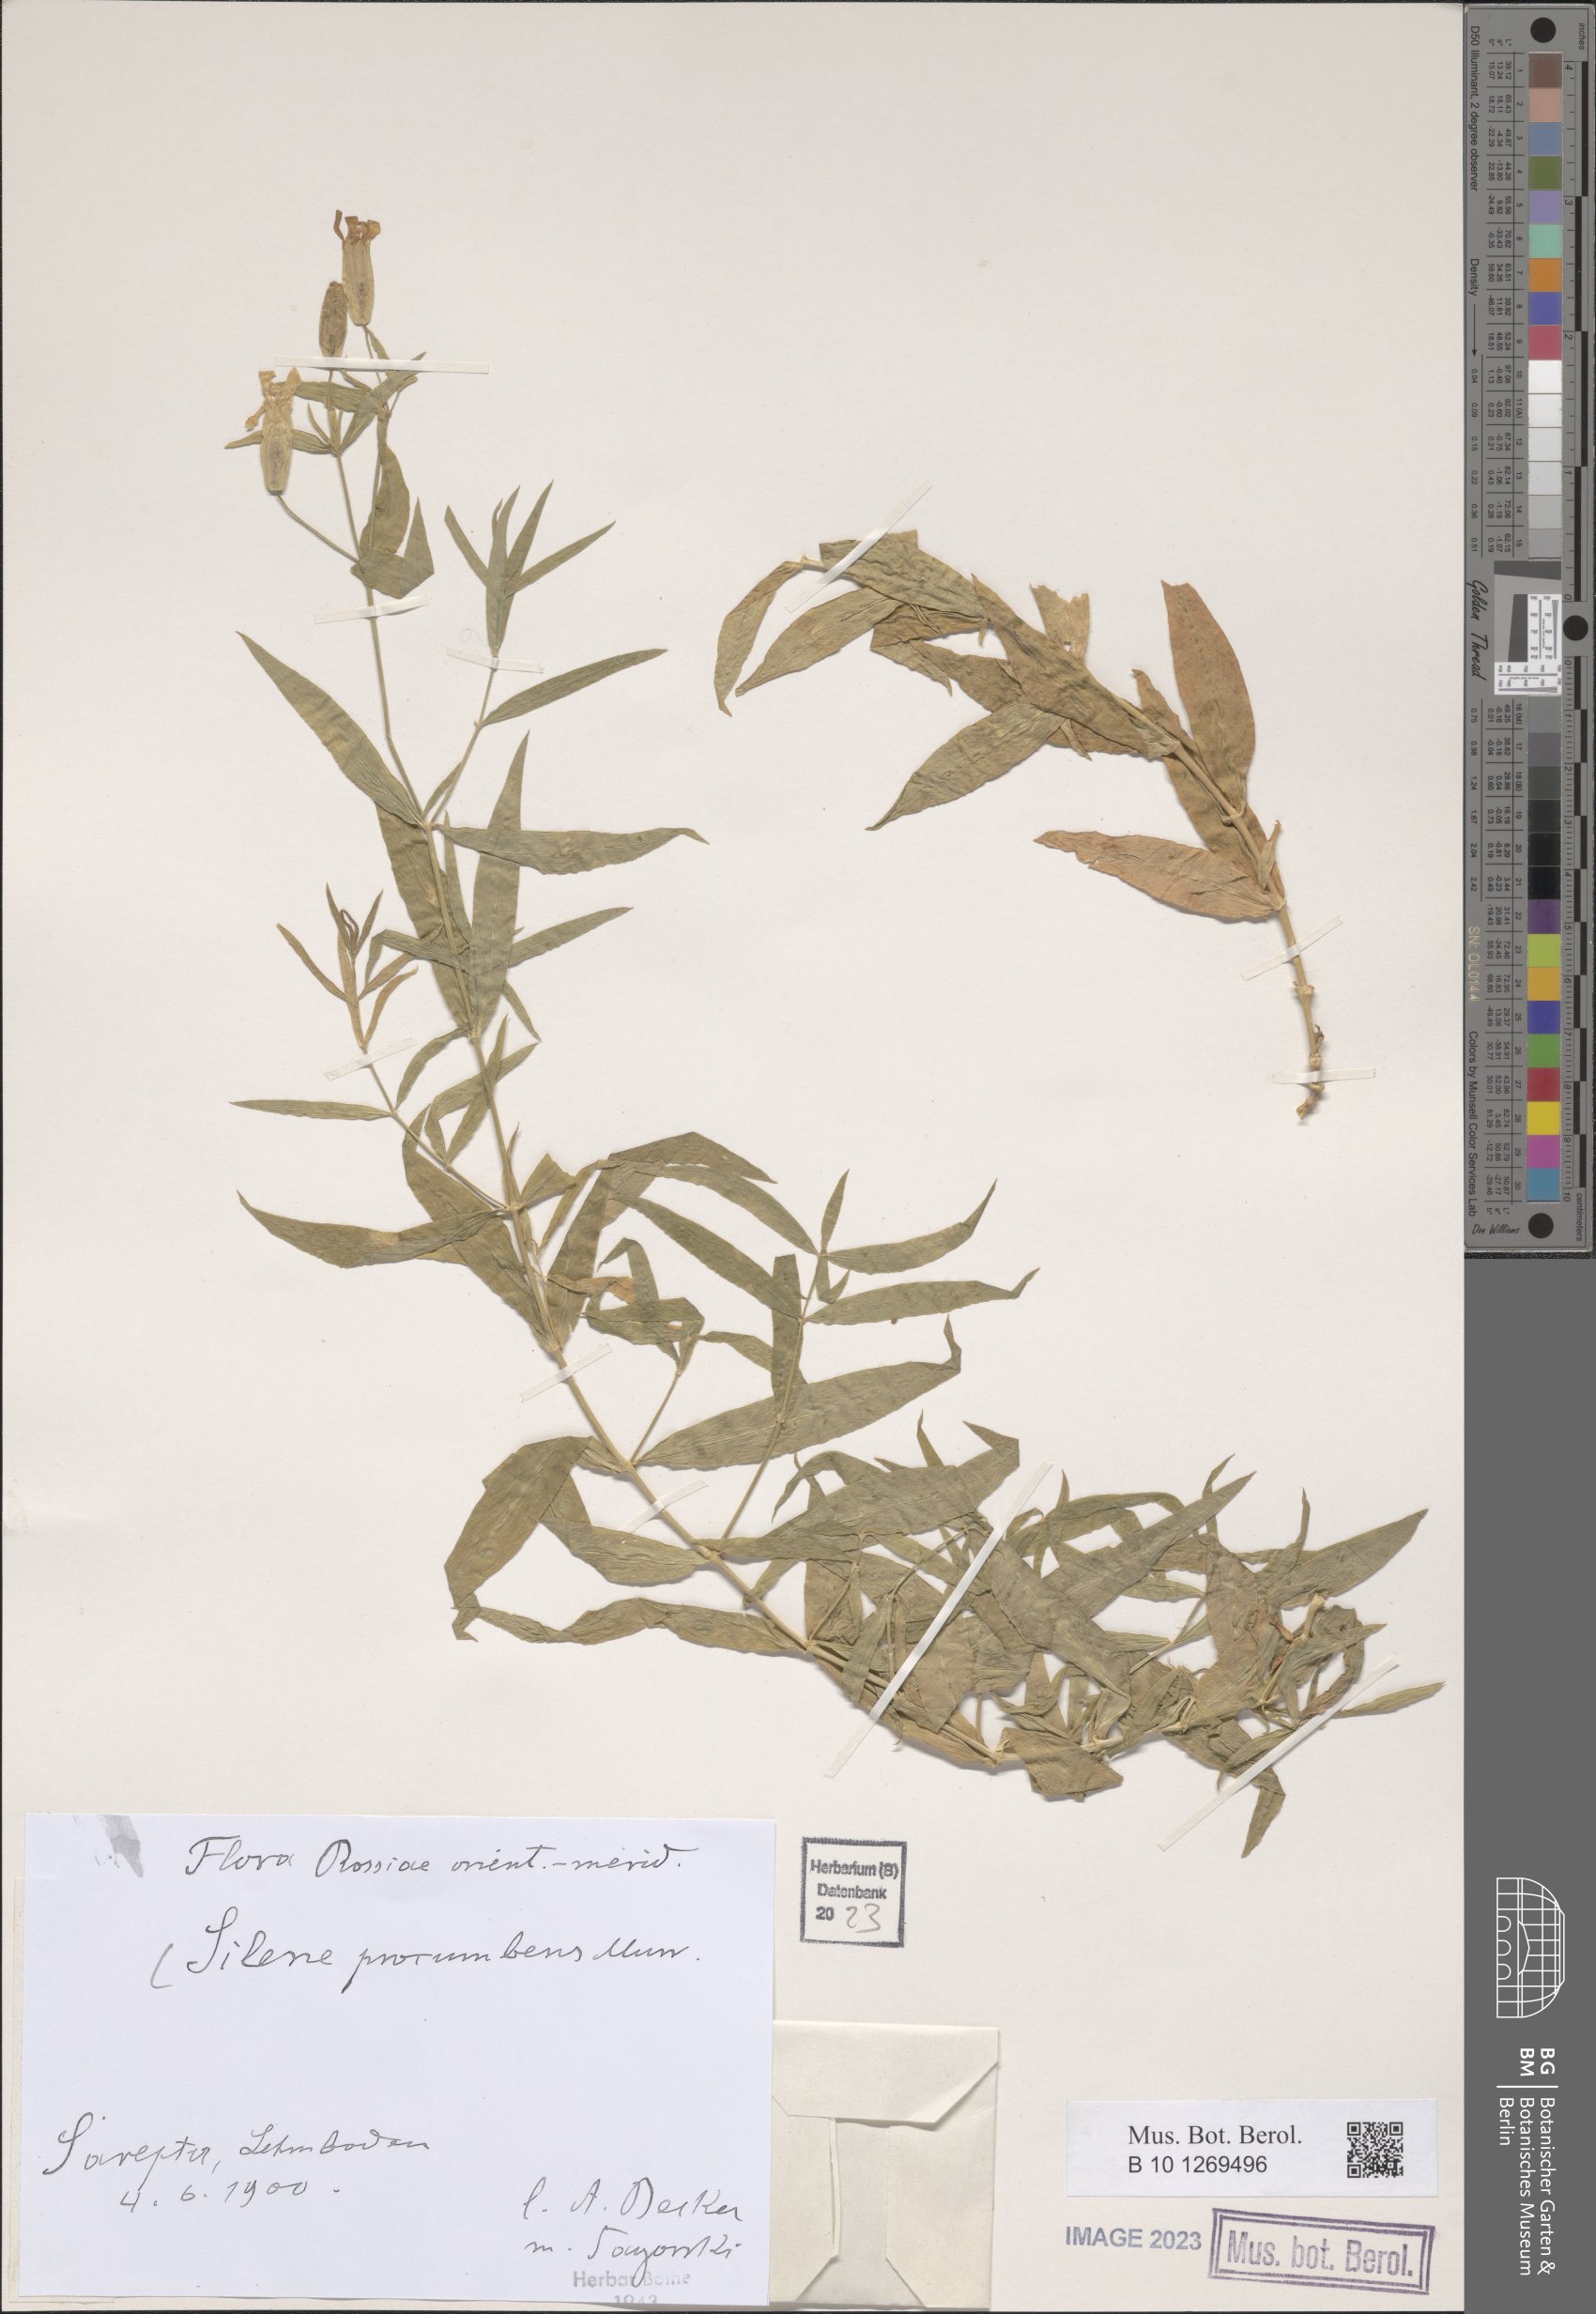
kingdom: Plantae
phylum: Tracheophyta
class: Magnoliopsida
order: Caryophyllales
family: Caryophyllaceae
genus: Silene
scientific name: Silene procumbens
